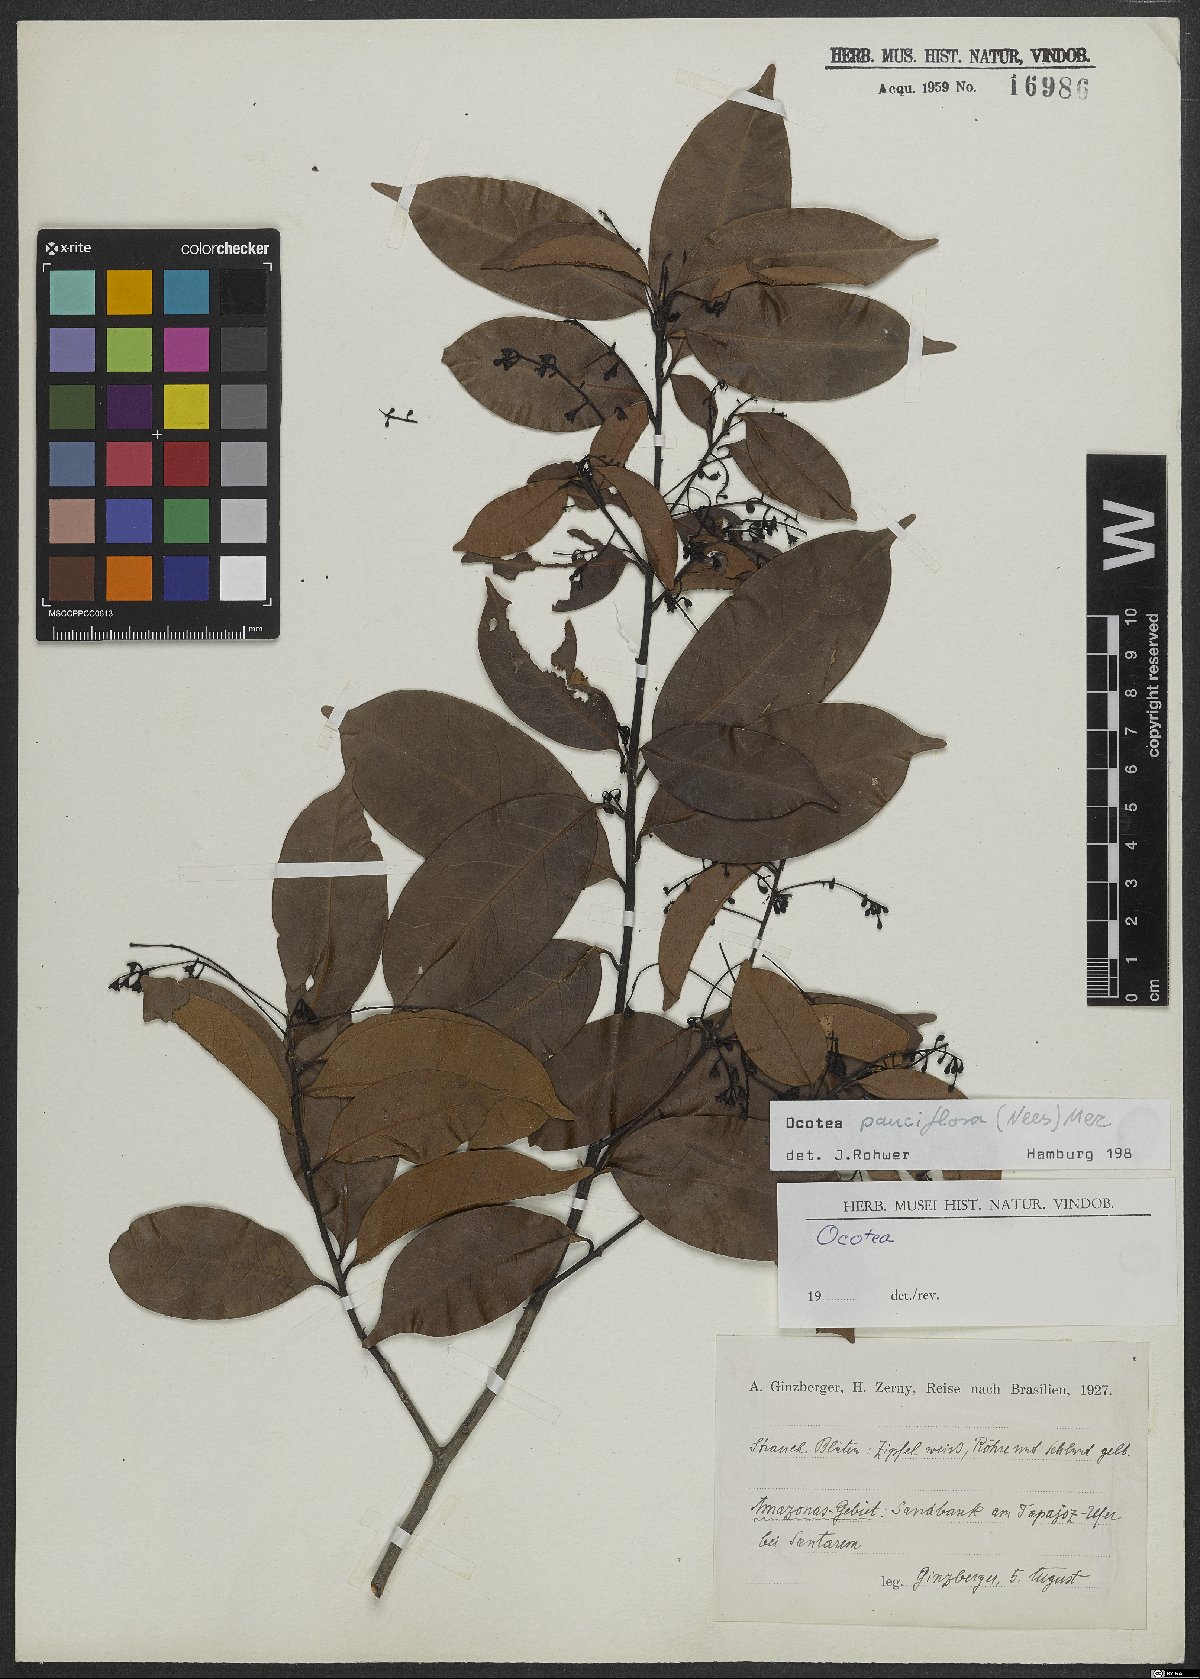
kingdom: Plantae
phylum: Tracheophyta
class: Magnoliopsida
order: Laurales
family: Lauraceae
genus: Ocotea
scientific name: Ocotea pauciflora
